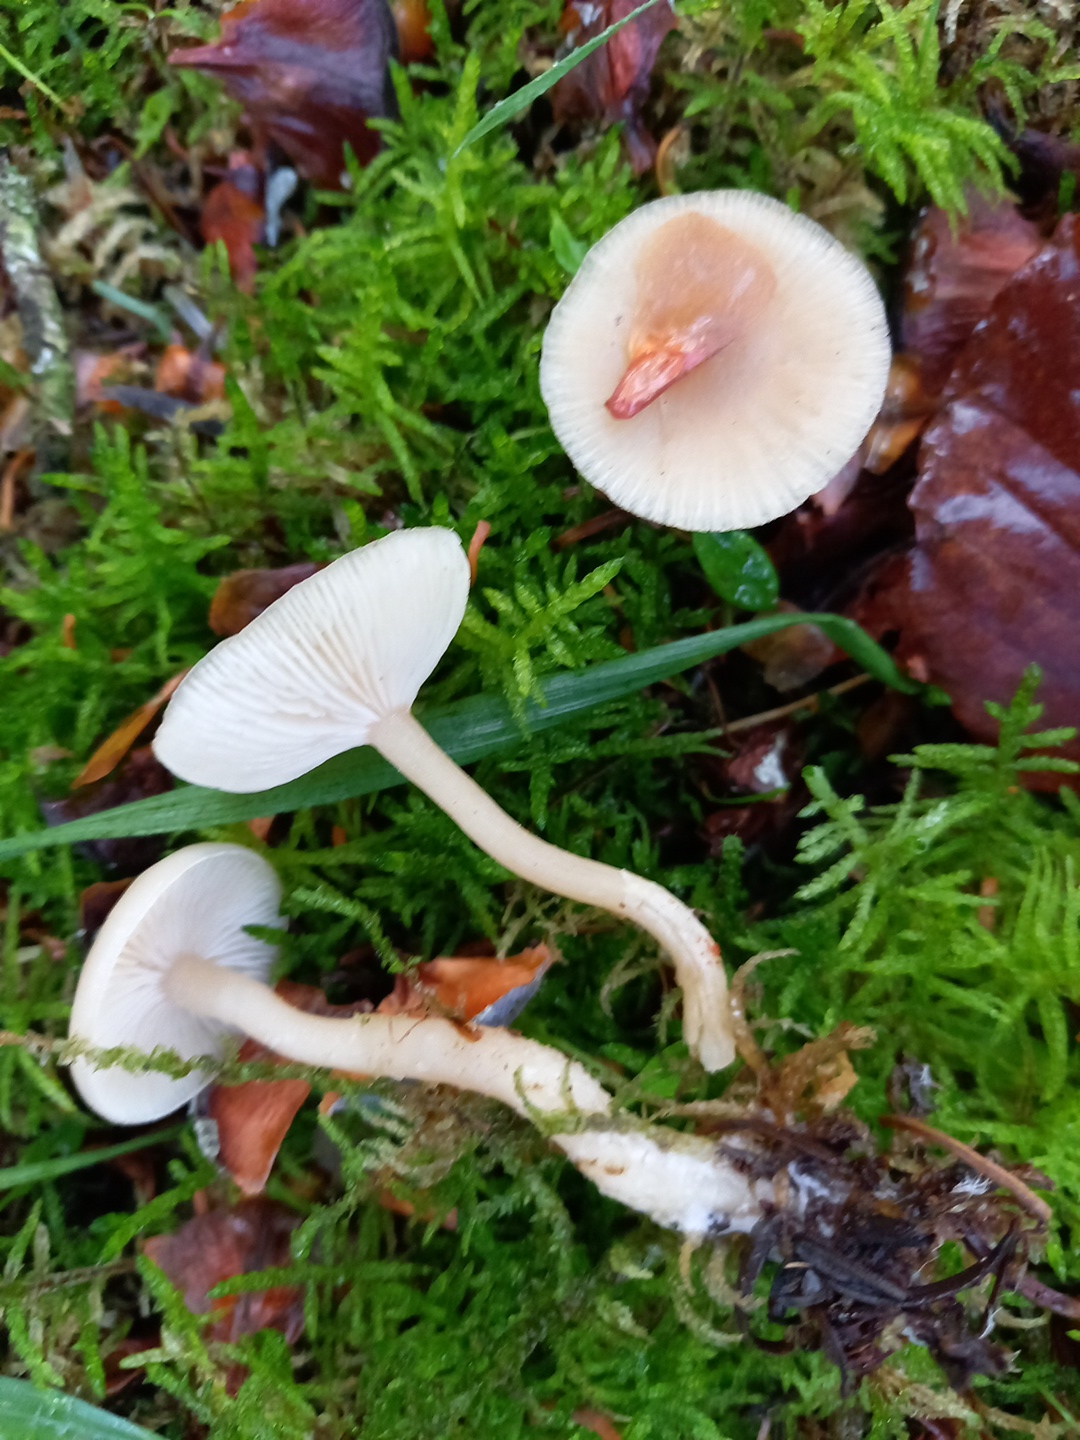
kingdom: Fungi
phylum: Basidiomycota
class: Agaricomycetes
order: Agaricales
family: Tricholomataceae
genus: Clitocybe
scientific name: Clitocybe fragrans
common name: vellugtende tragthat
